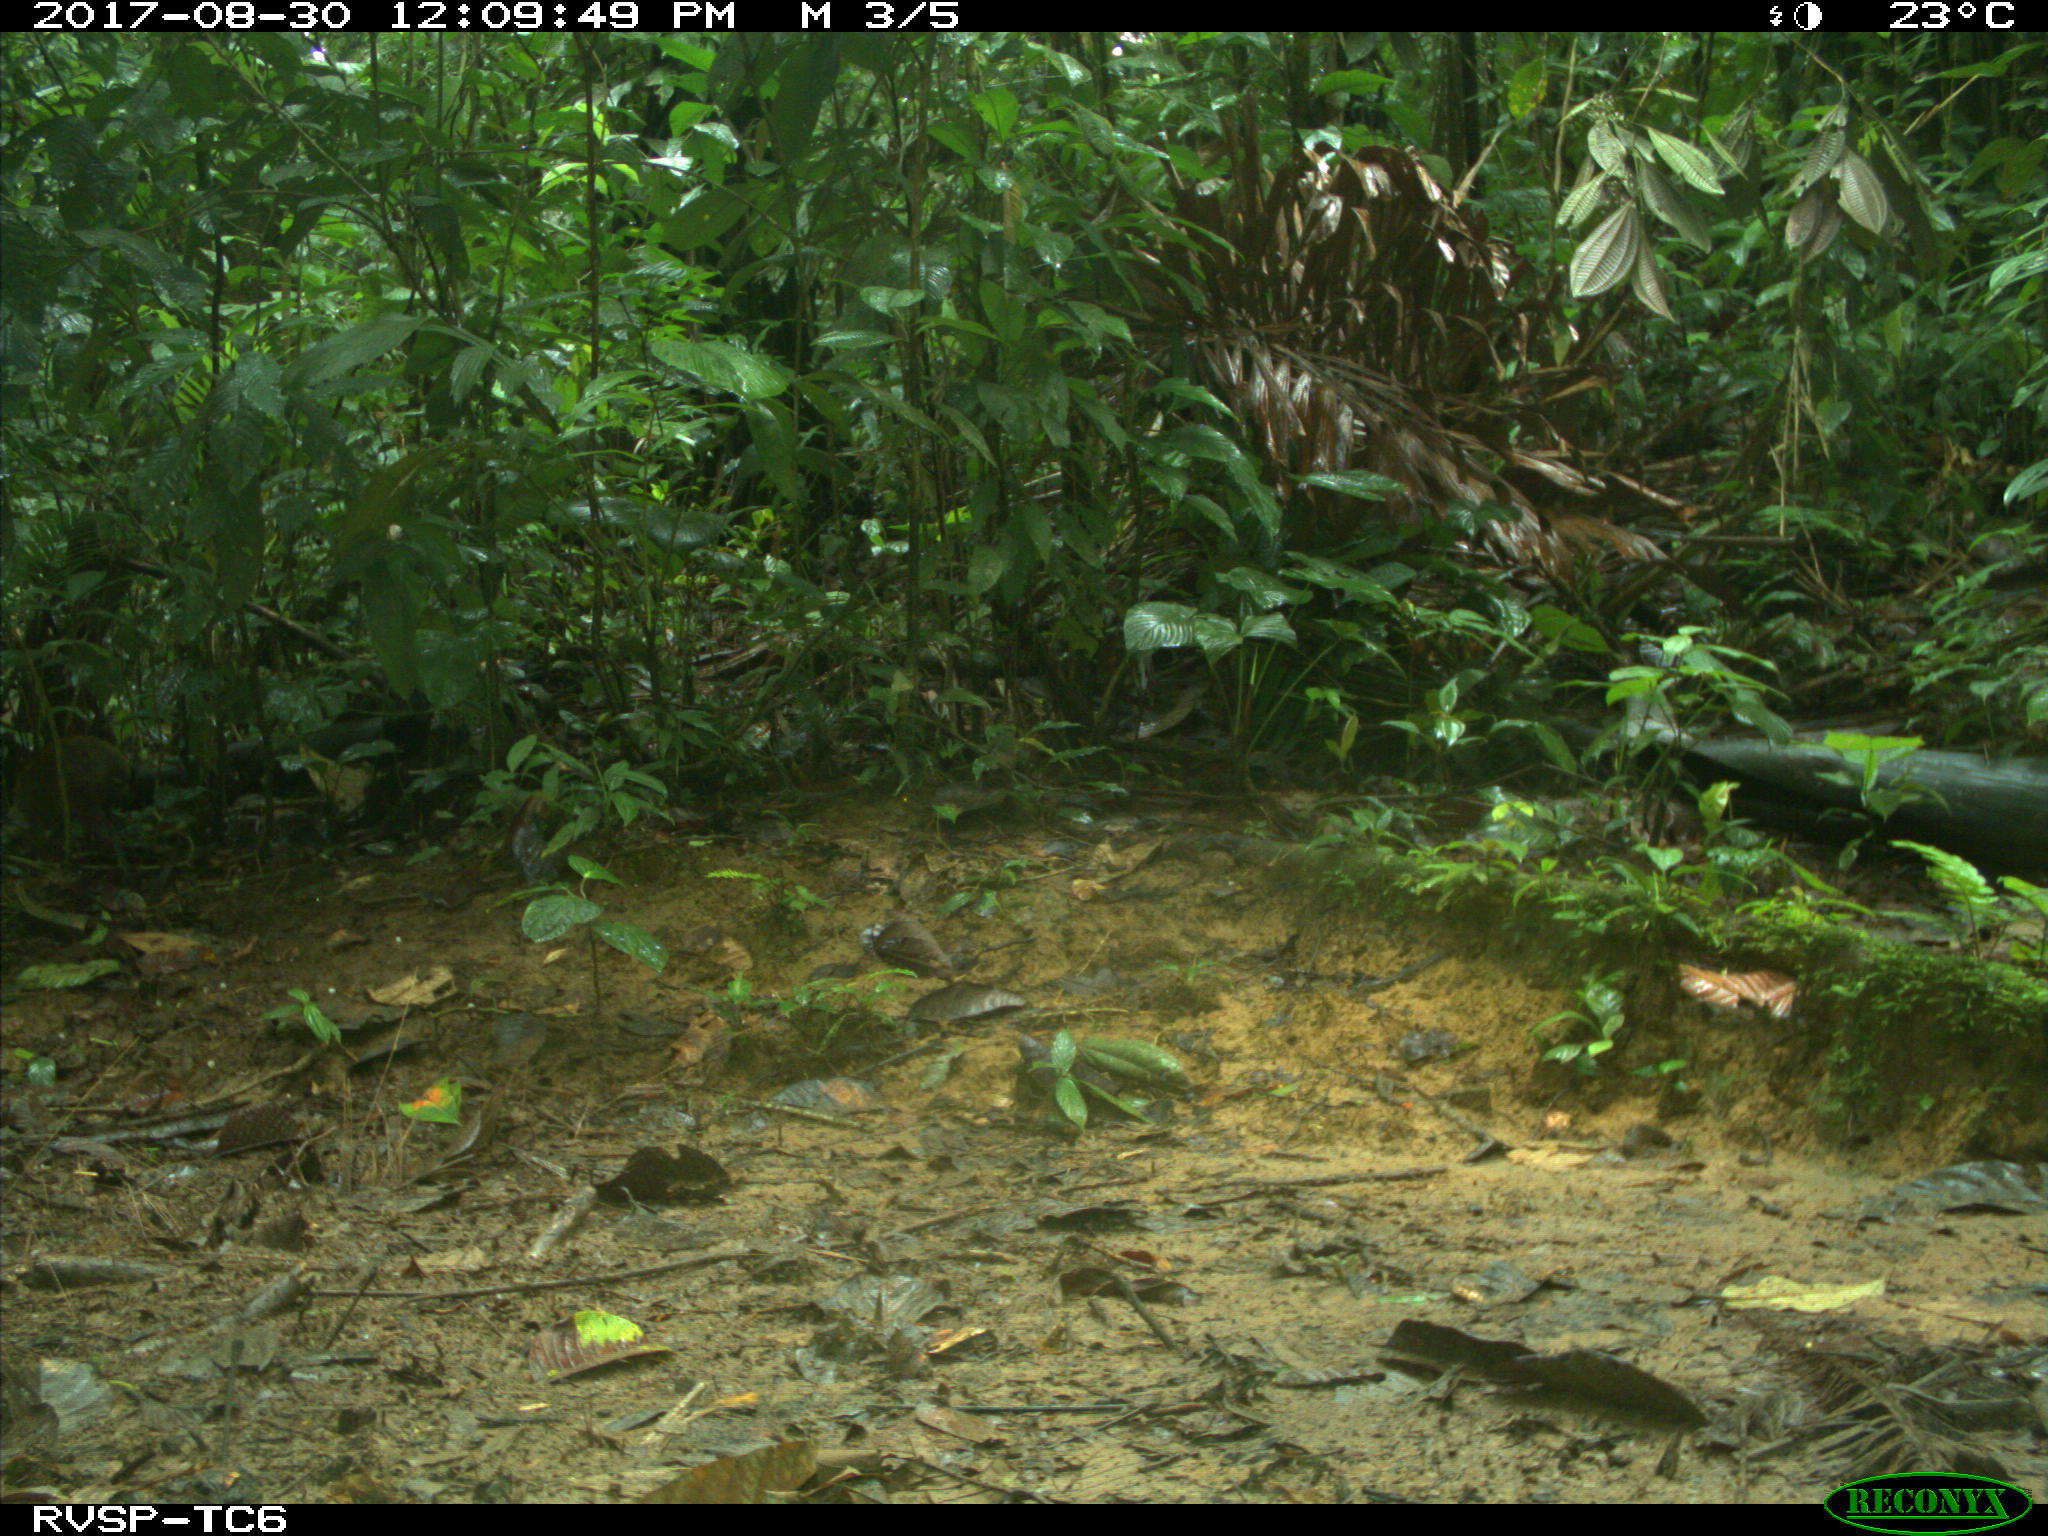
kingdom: Animalia
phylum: Chordata
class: Mammalia
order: Rodentia
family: Dasyproctidae
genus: Dasyprocta
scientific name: Dasyprocta punctata
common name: Central american agouti
